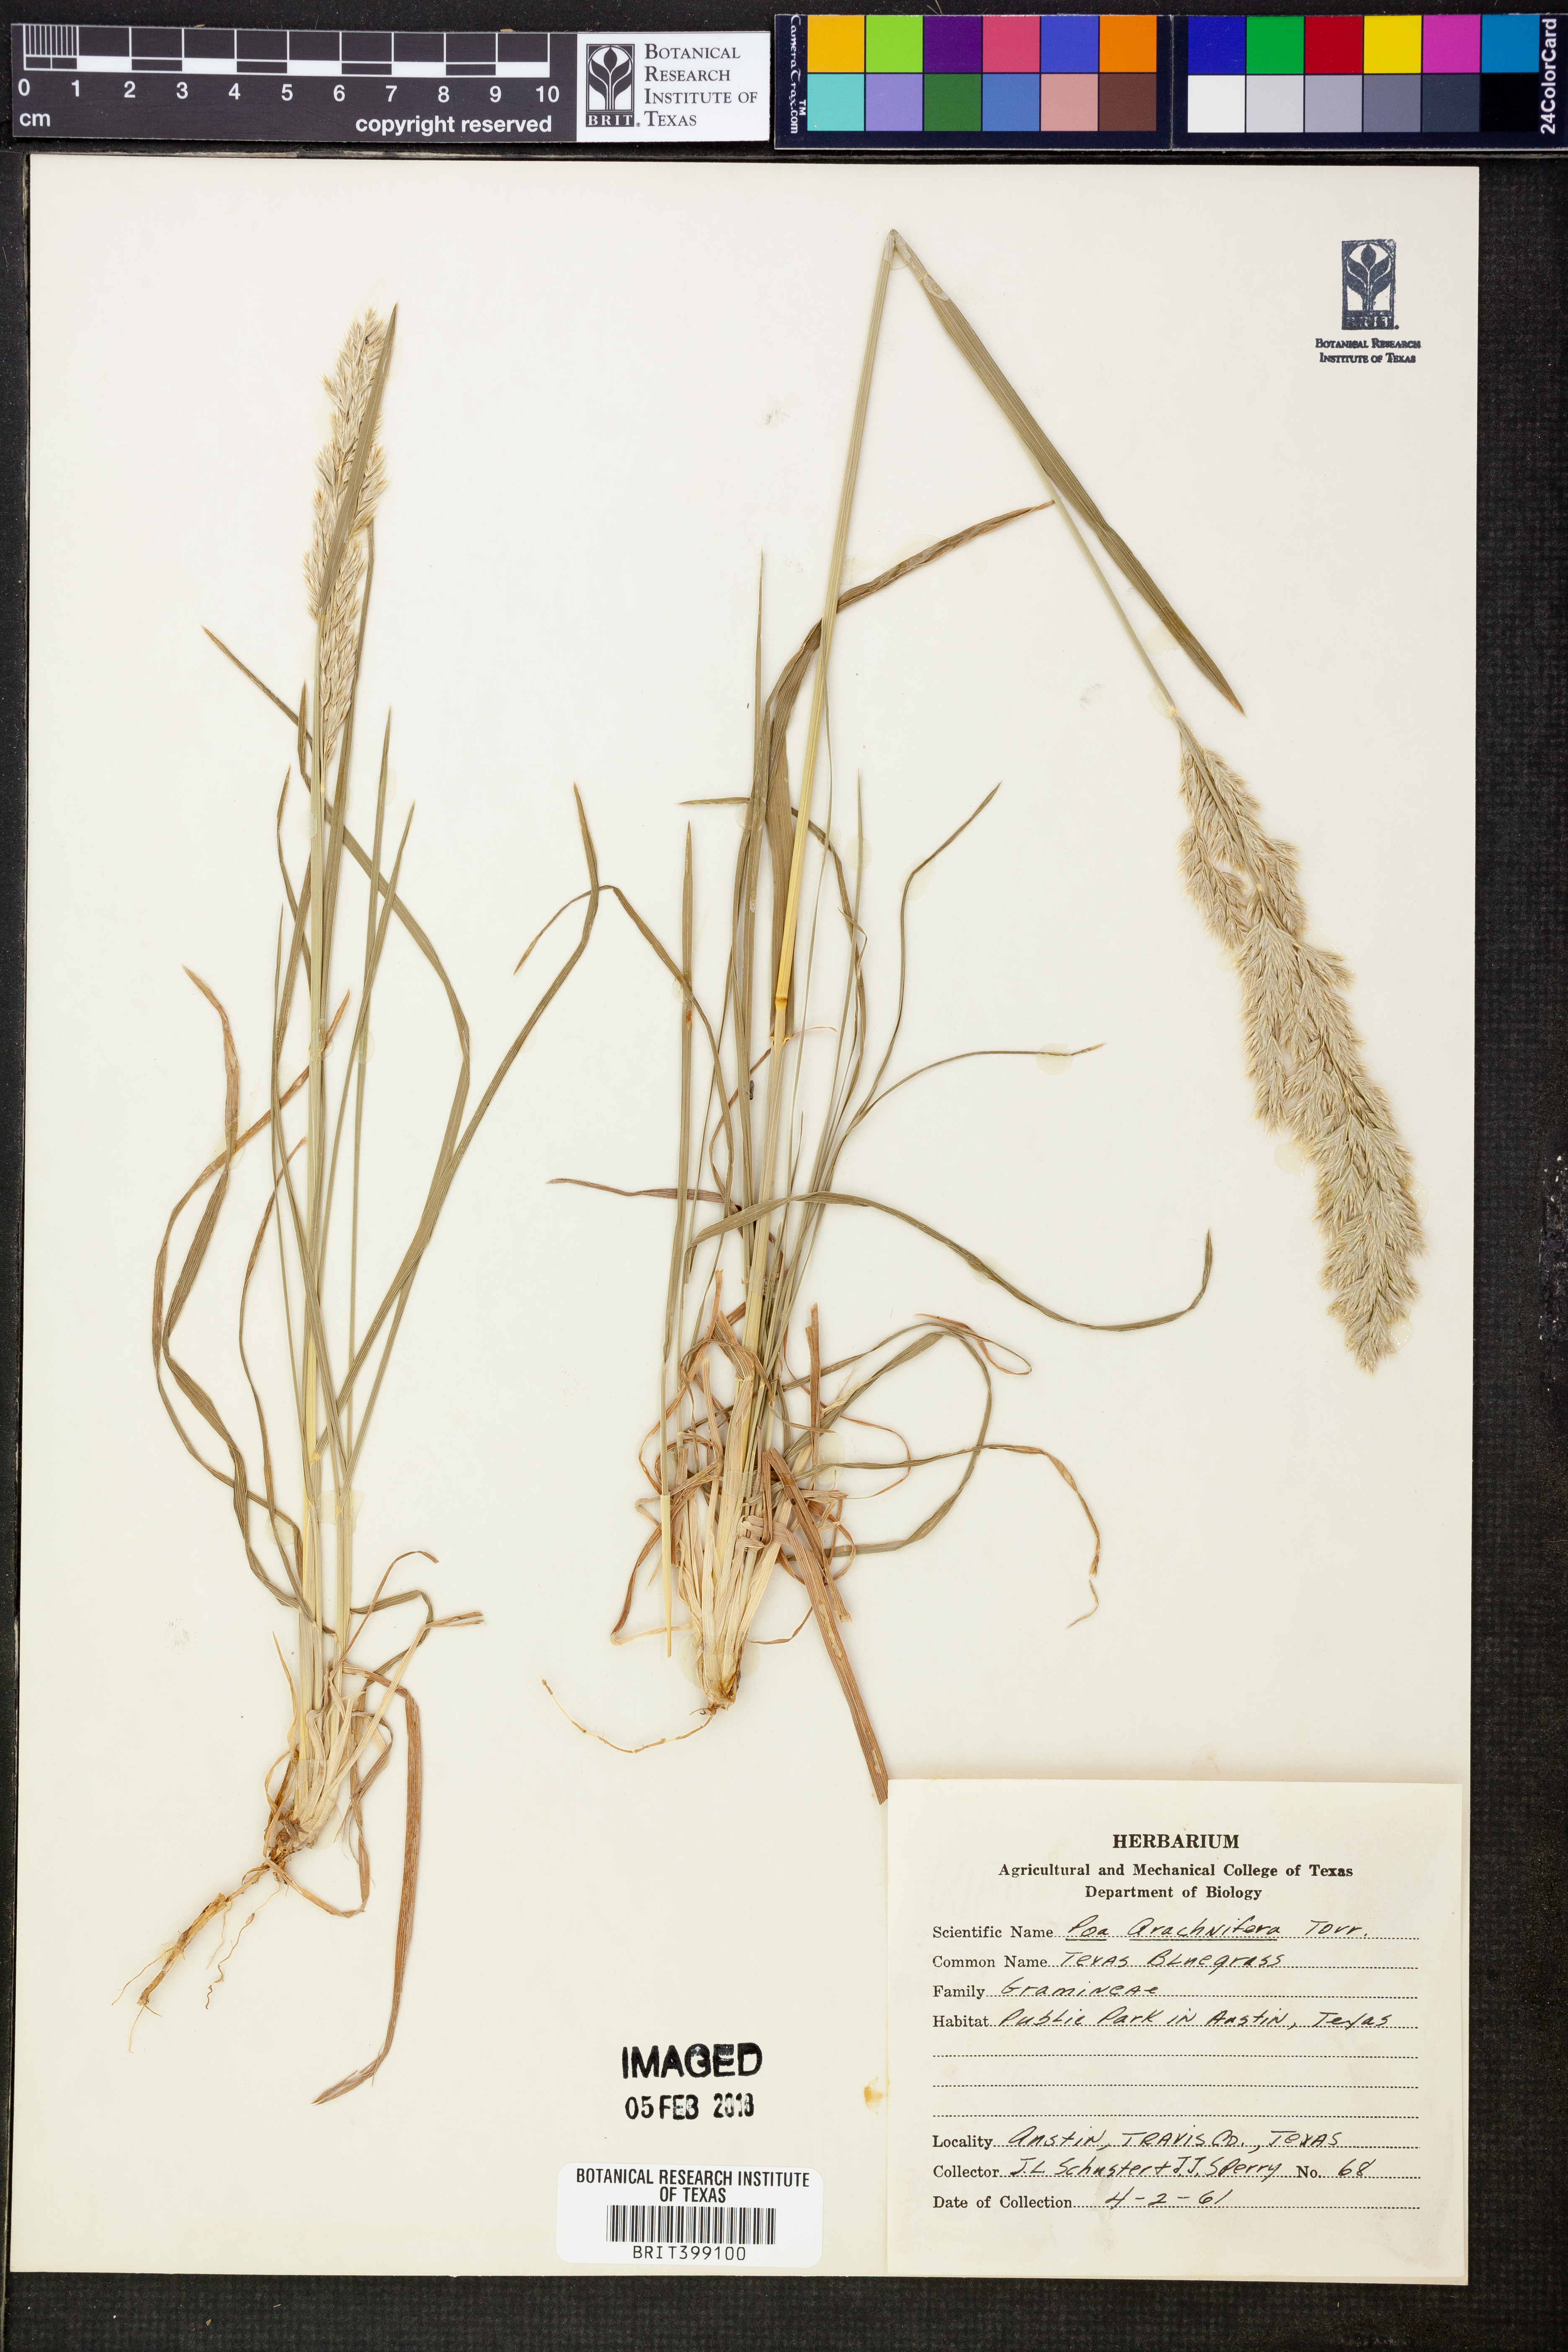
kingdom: Plantae
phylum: Tracheophyta
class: Liliopsida
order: Poales
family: Poaceae
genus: Poa
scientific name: Poa arachnifera
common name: Texas bluegrass
